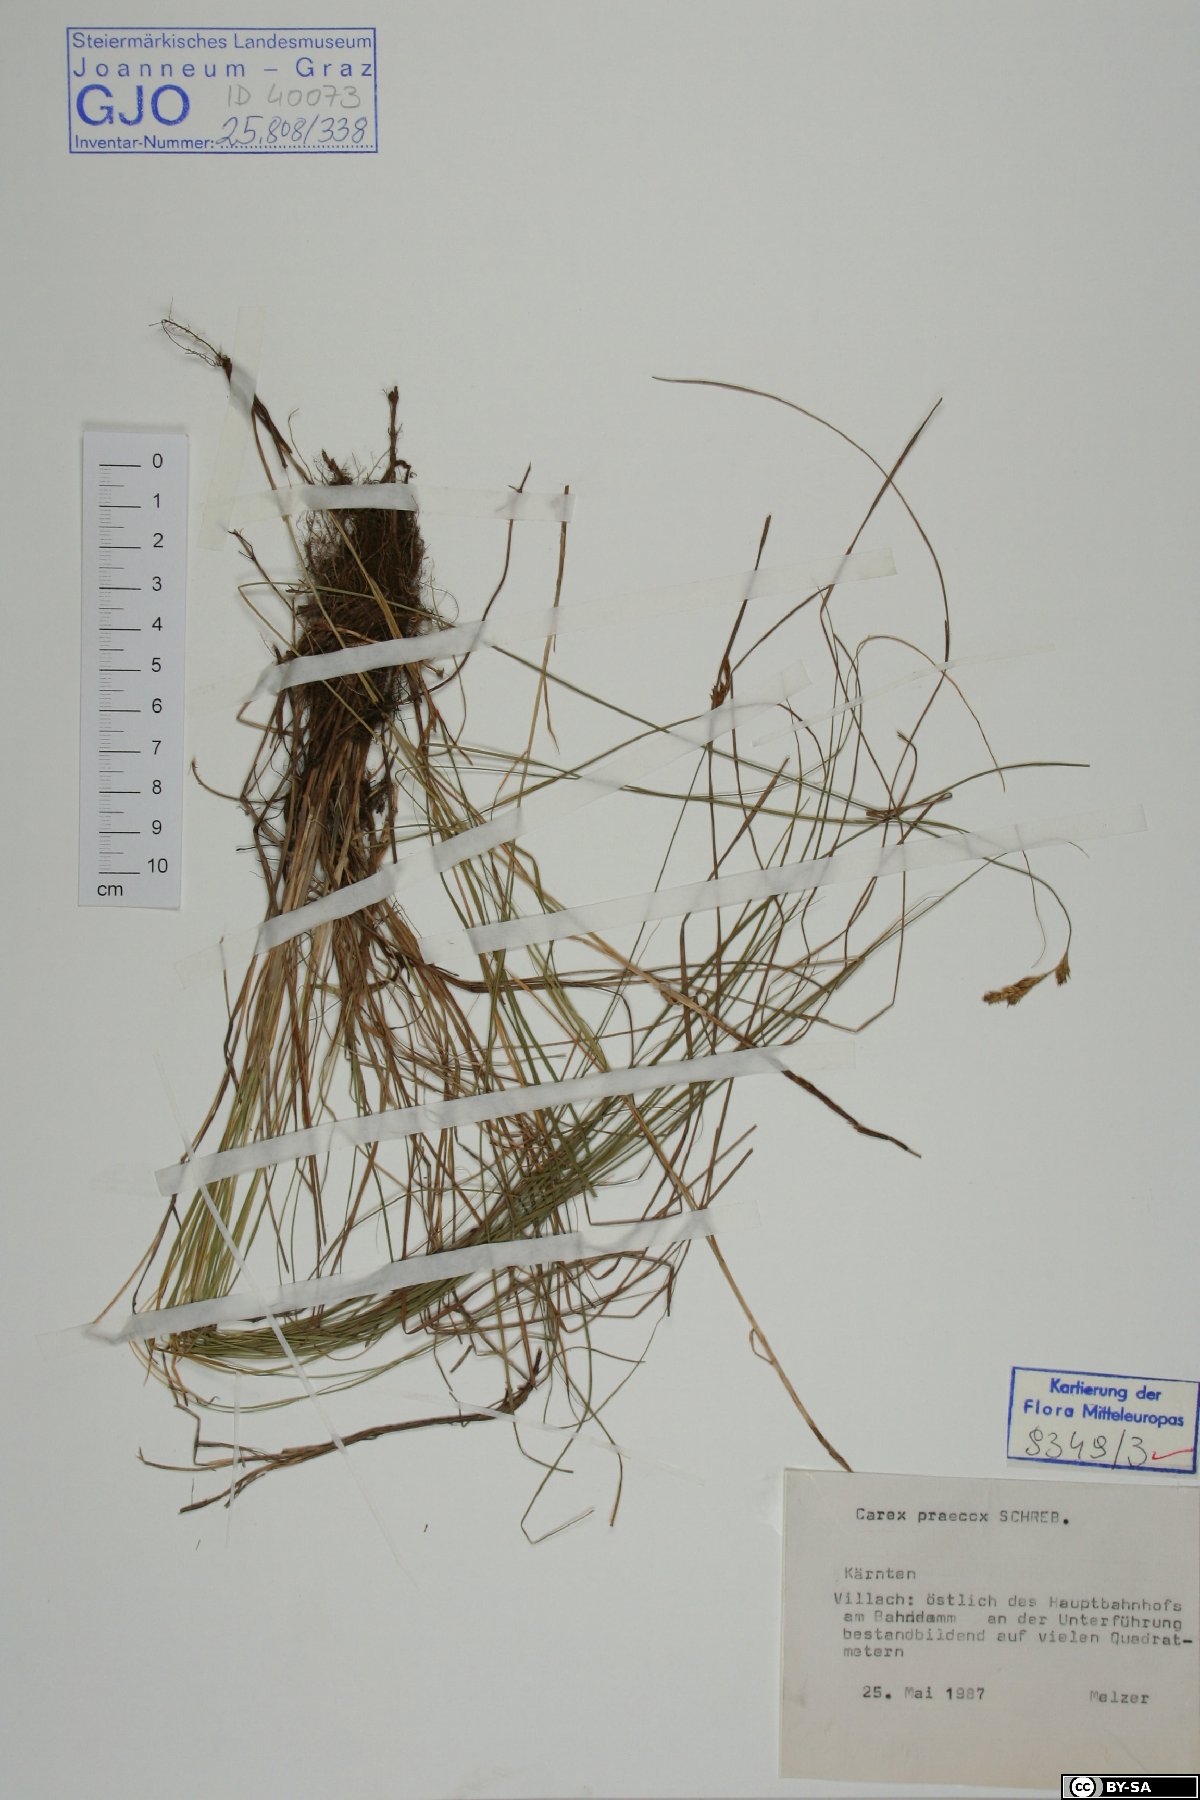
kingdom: Plantae
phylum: Tracheophyta
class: Liliopsida
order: Poales
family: Cyperaceae
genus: Carex
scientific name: Carex praecox
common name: Early sedge
